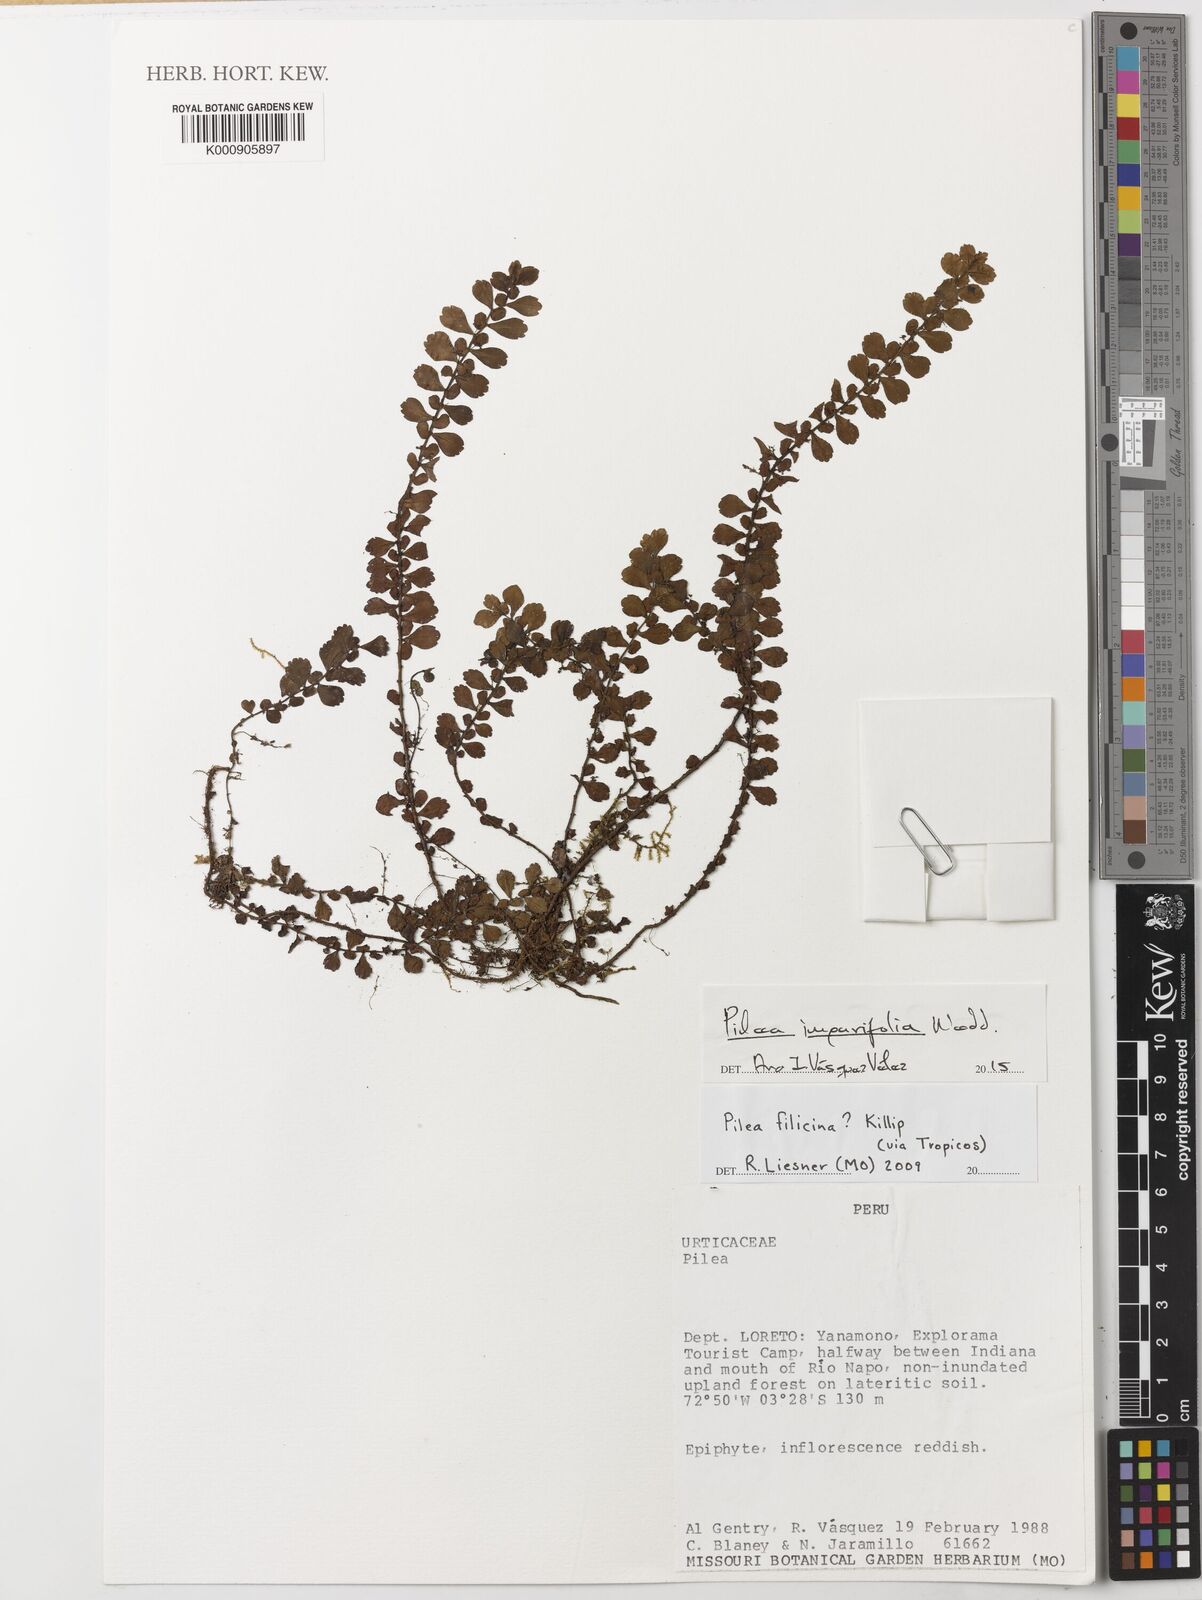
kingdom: Plantae
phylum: Tracheophyta
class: Magnoliopsida
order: Rosales
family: Urticaceae
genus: Pilea
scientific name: Pilea imparifolia
